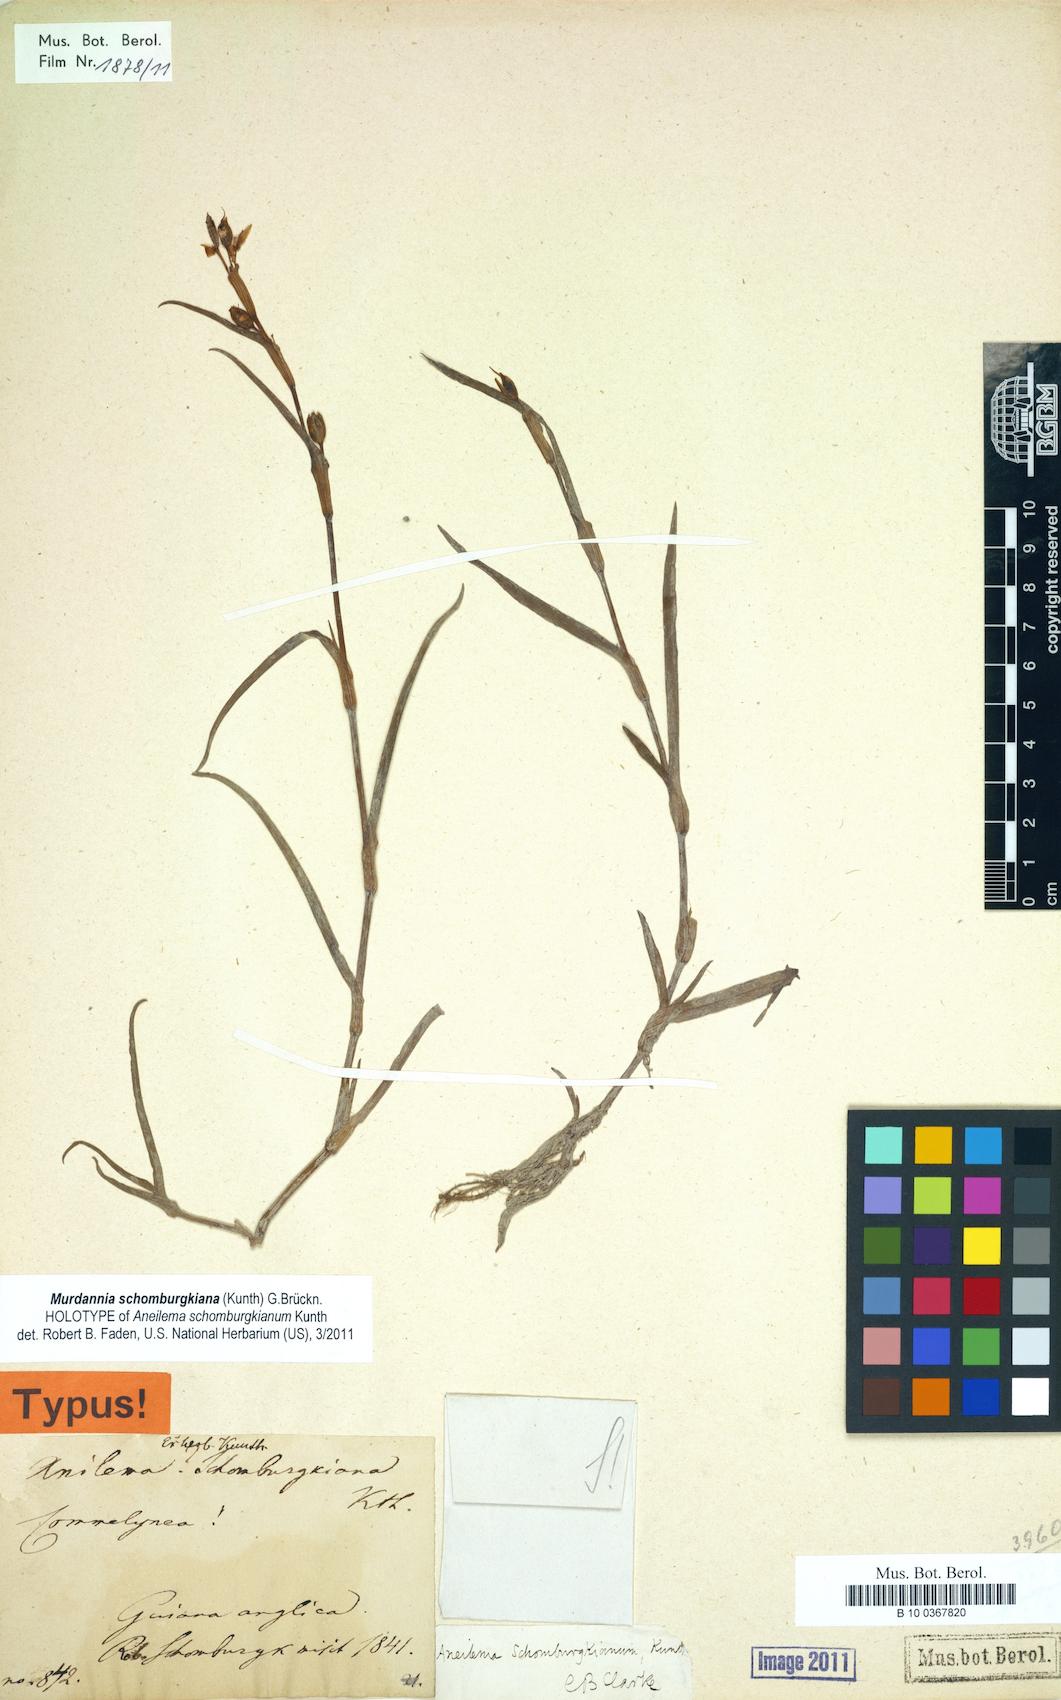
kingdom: Plantae
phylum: Tracheophyta
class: Liliopsida
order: Commelinales
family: Commelinaceae
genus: Murdannia
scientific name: Murdannia schomburgkiana
